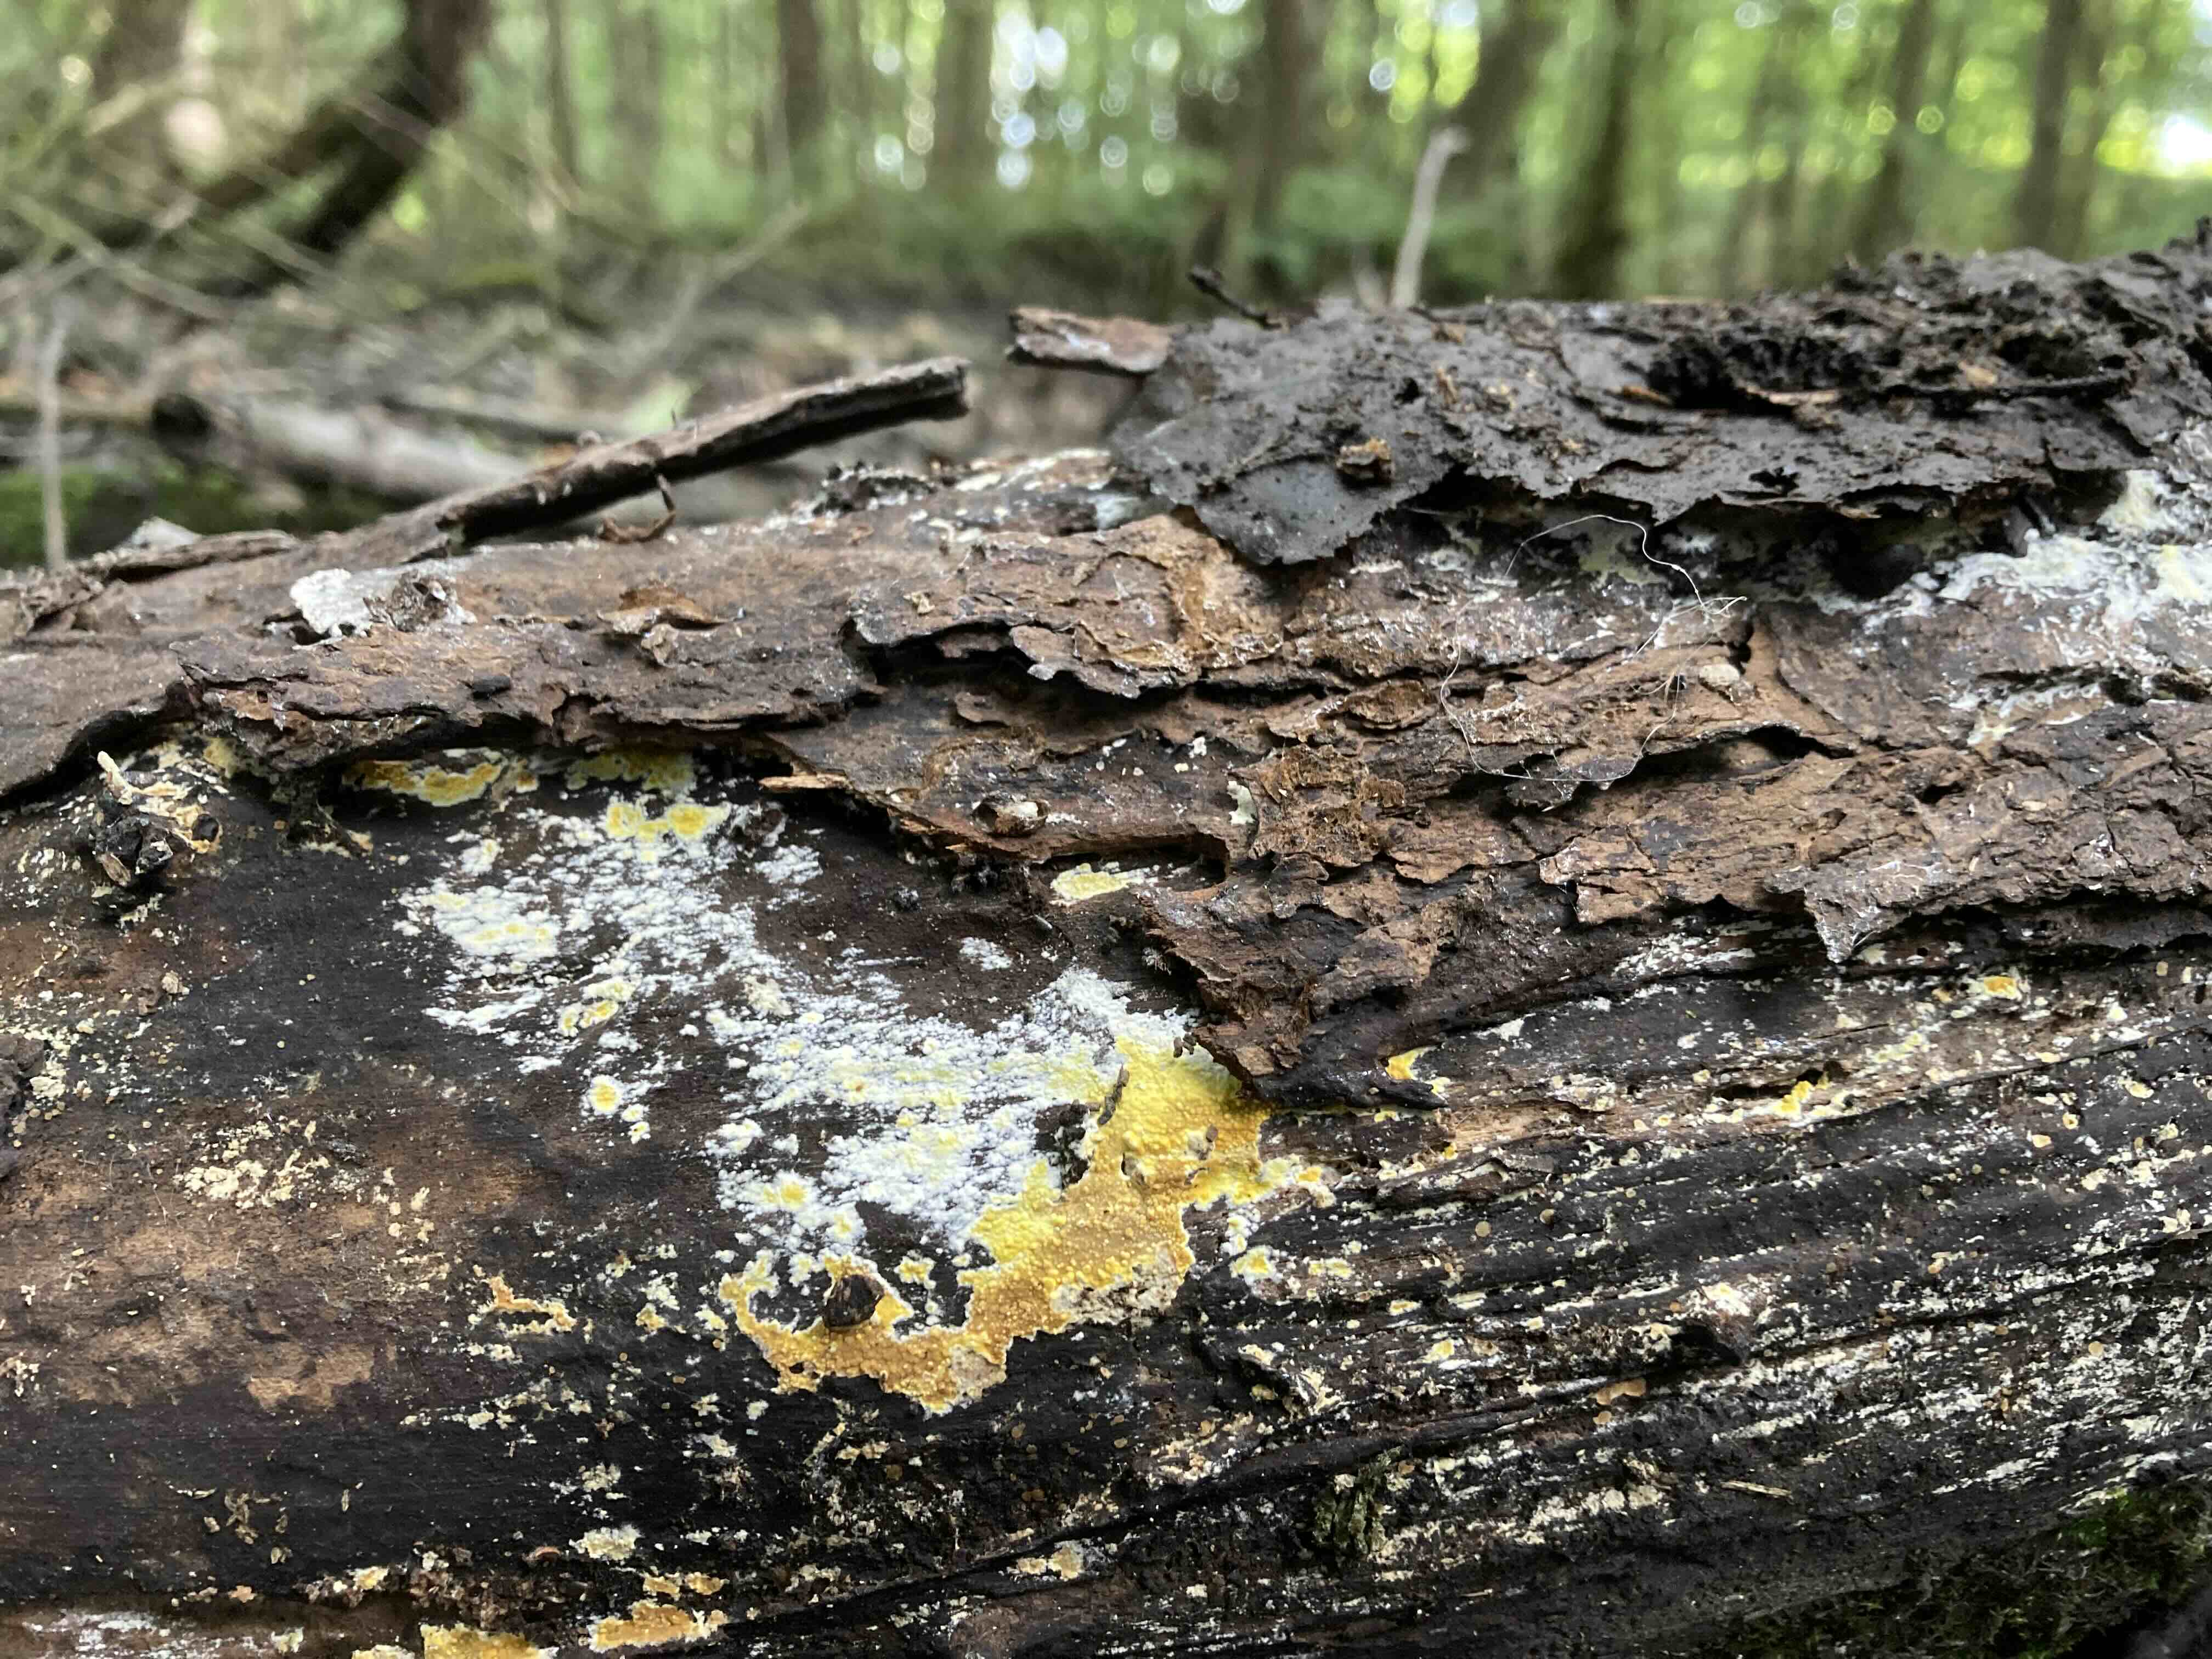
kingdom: Fungi
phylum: Basidiomycota
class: Agaricomycetes
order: Polyporales
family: Meruliaceae
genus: Phlebiodontia
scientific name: Phlebiodontia subochracea
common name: svovl-åresvamp
